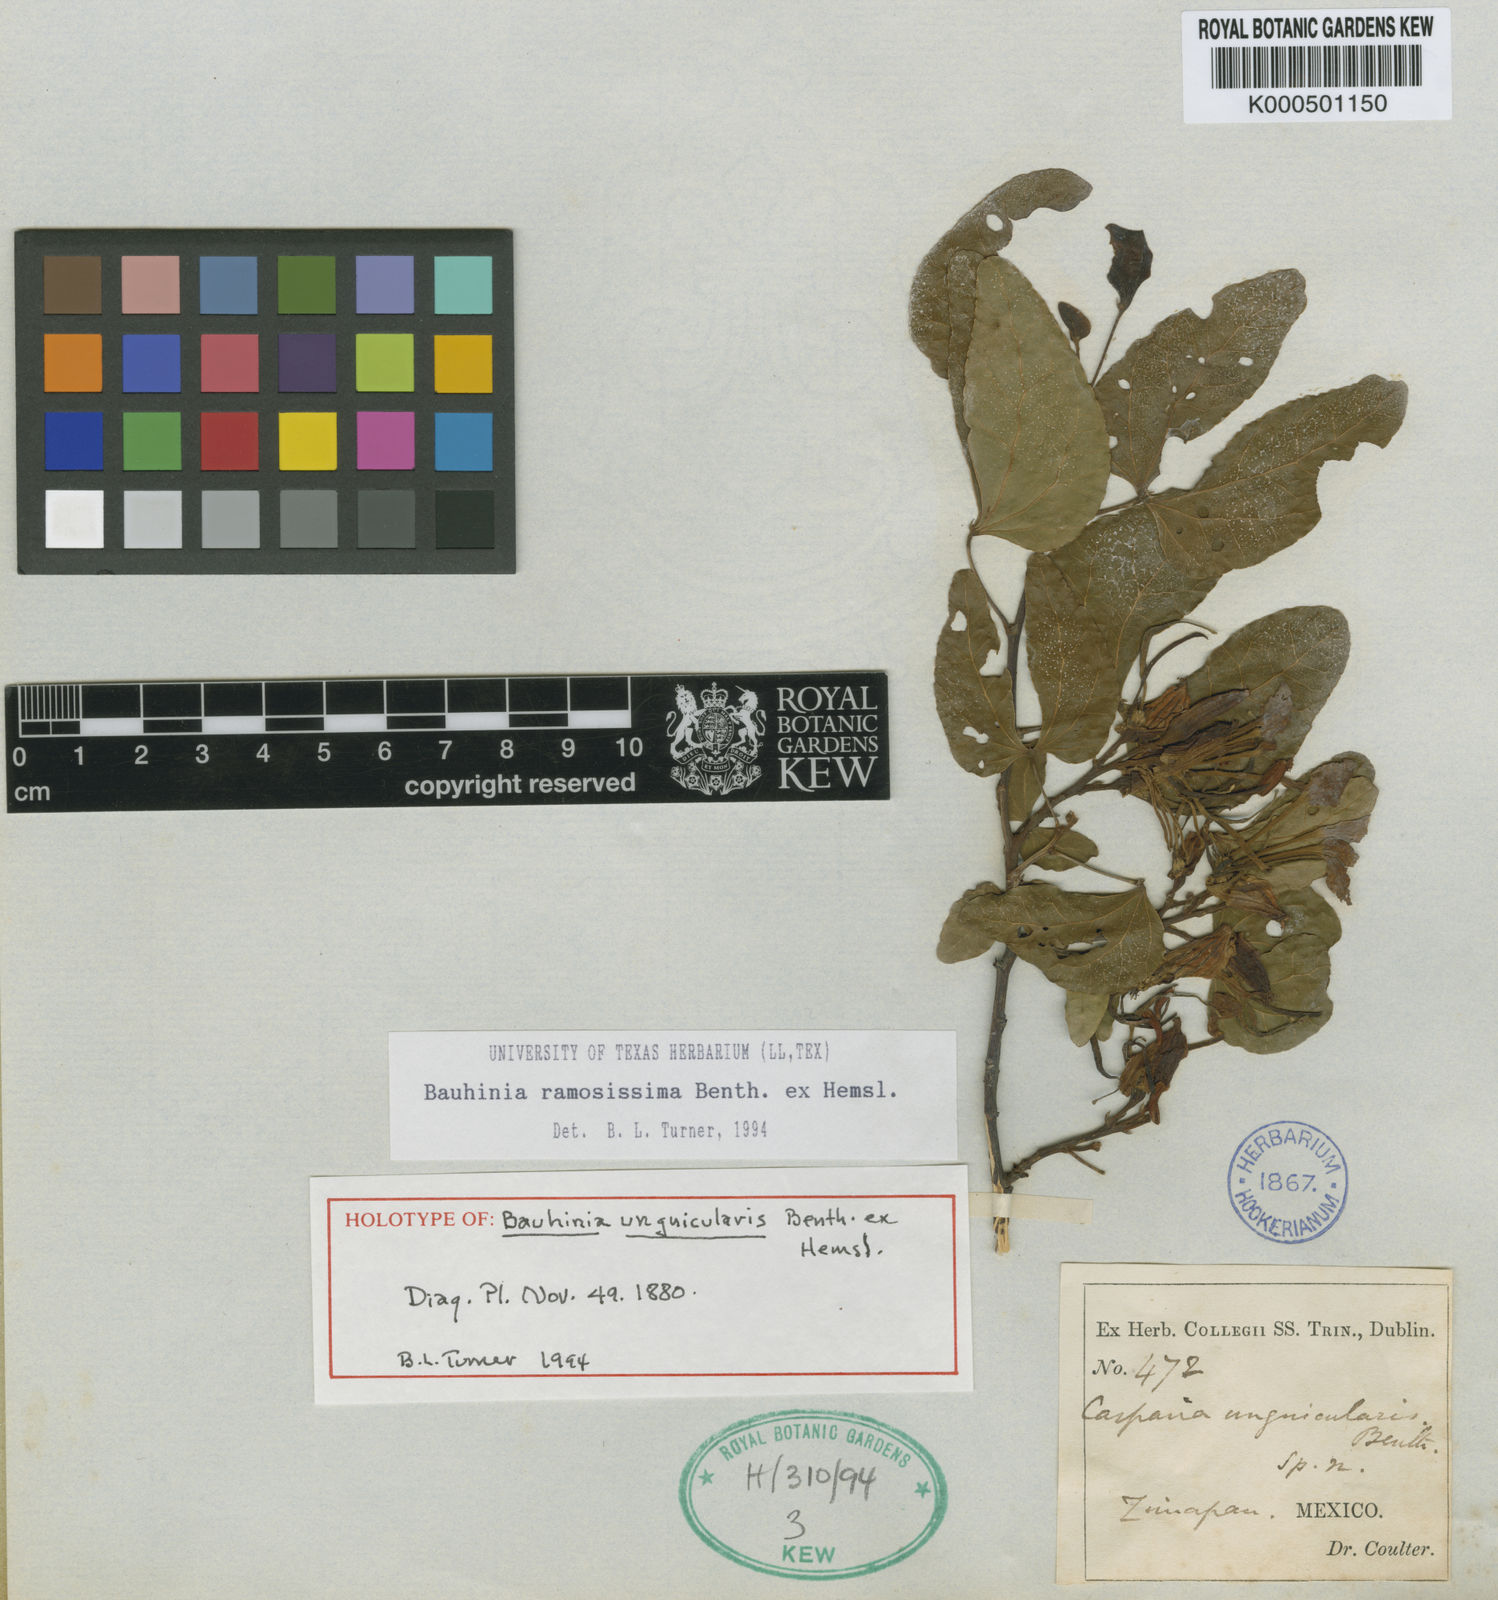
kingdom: Plantae
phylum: Tracheophyta
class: Magnoliopsida
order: Fabales
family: Fabaceae
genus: Bauhinia
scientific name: Bauhinia ramosissima
